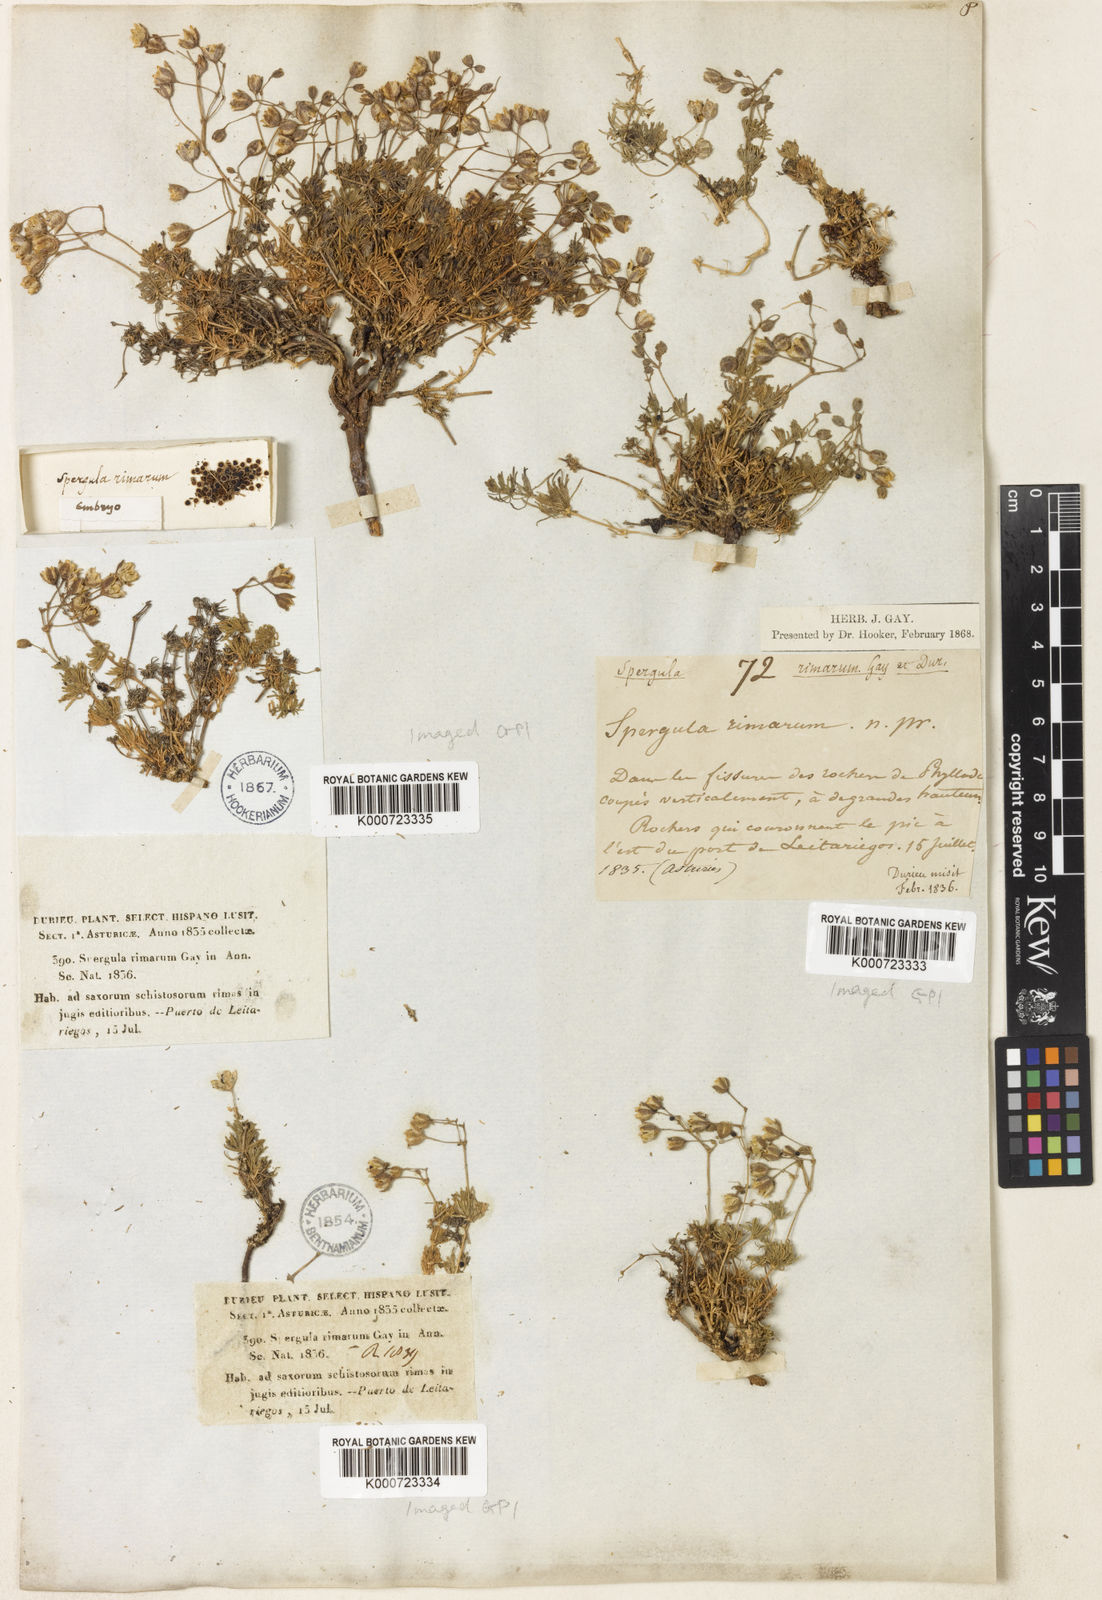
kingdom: Plantae
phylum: Tracheophyta
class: Magnoliopsida
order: Caryophyllales
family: Caryophyllaceae
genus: Spergula
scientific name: Spergula viscosa
